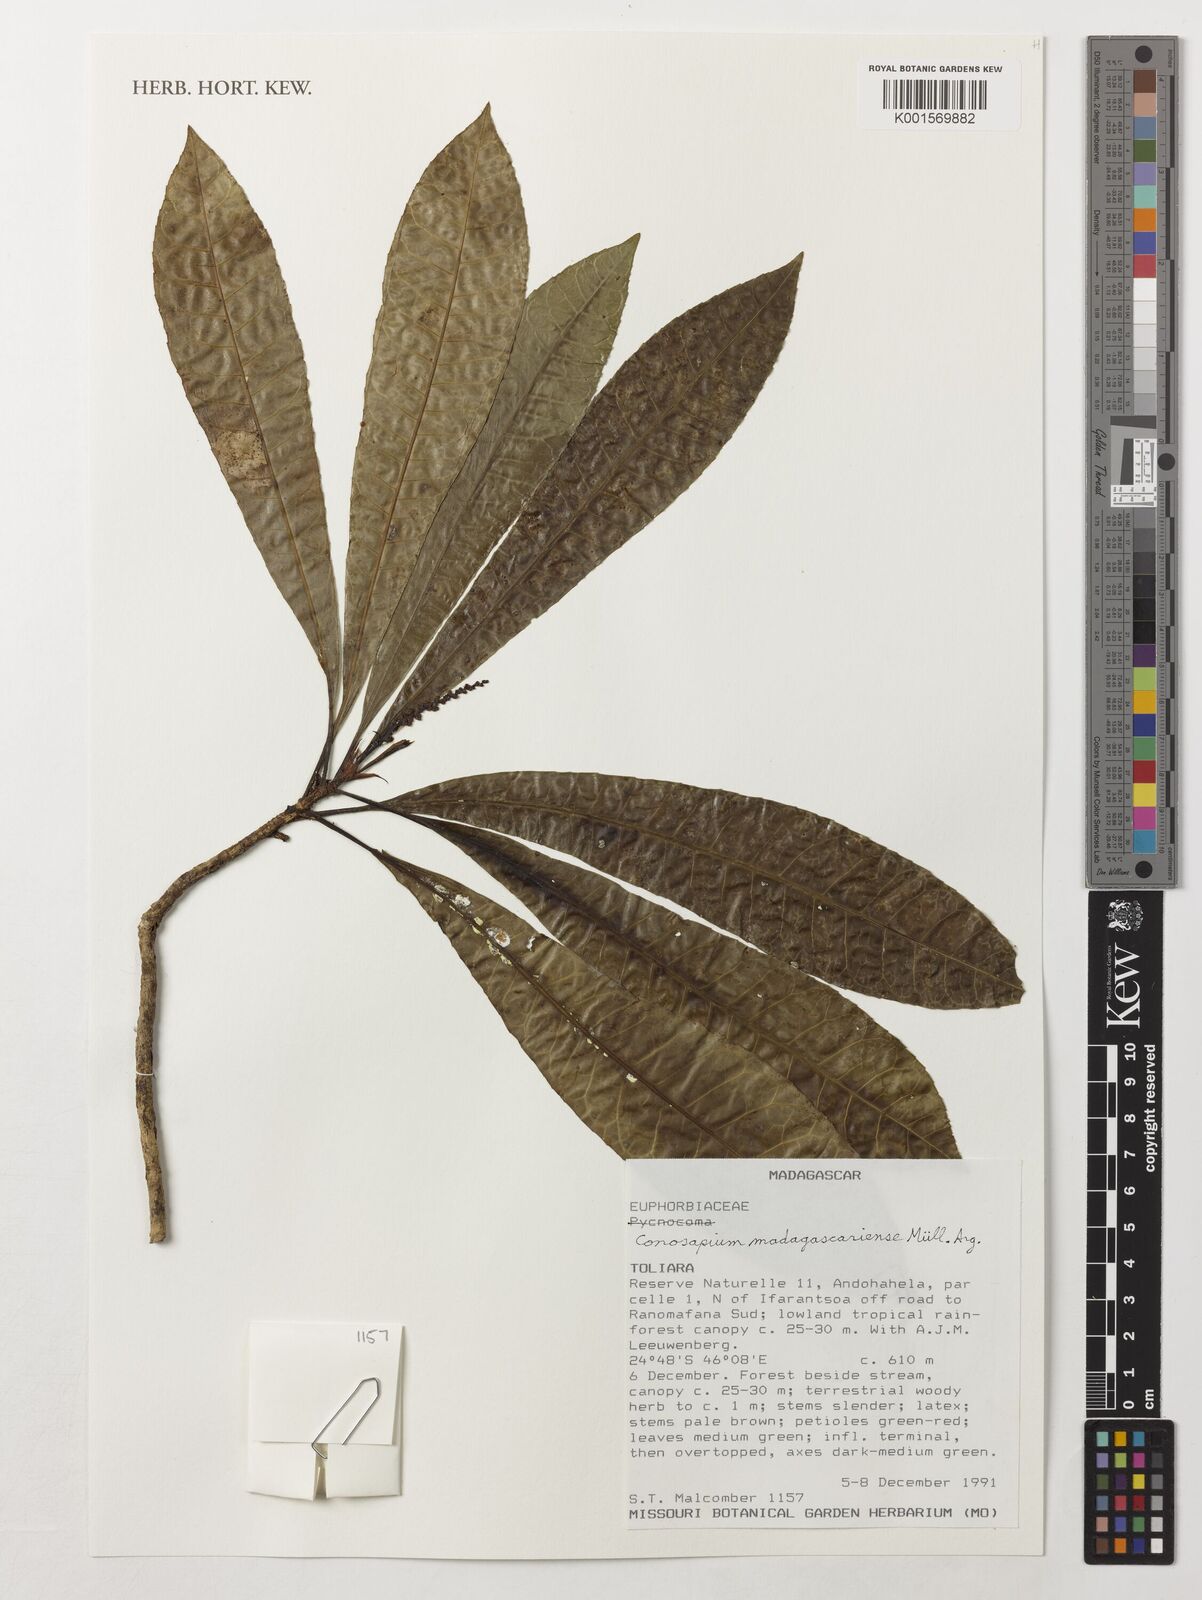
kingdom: Plantae
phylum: Tracheophyta
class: Magnoliopsida
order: Malpighiales
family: Euphorbiaceae
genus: Conosapium
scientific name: Conosapium madagascariense
